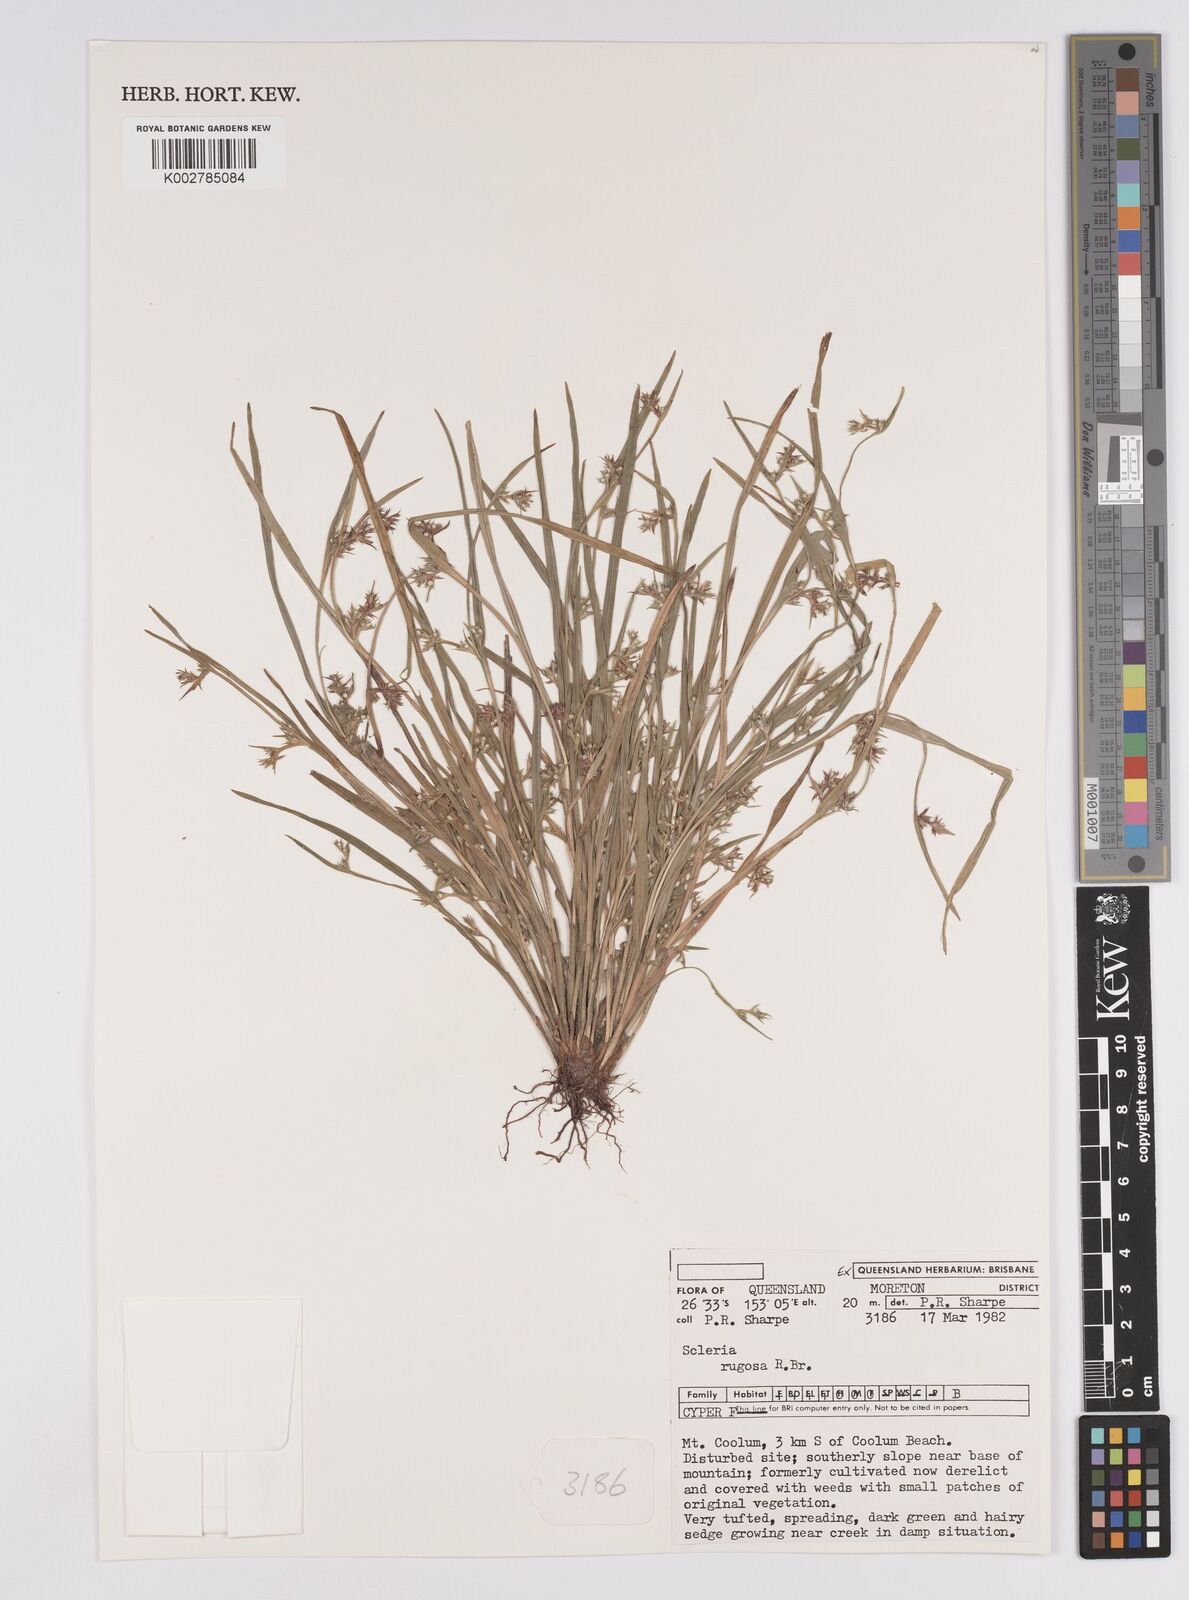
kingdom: Plantae
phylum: Tracheophyta
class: Liliopsida
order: Poales
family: Cyperaceae
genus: Scleria
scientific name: Scleria rugosa
